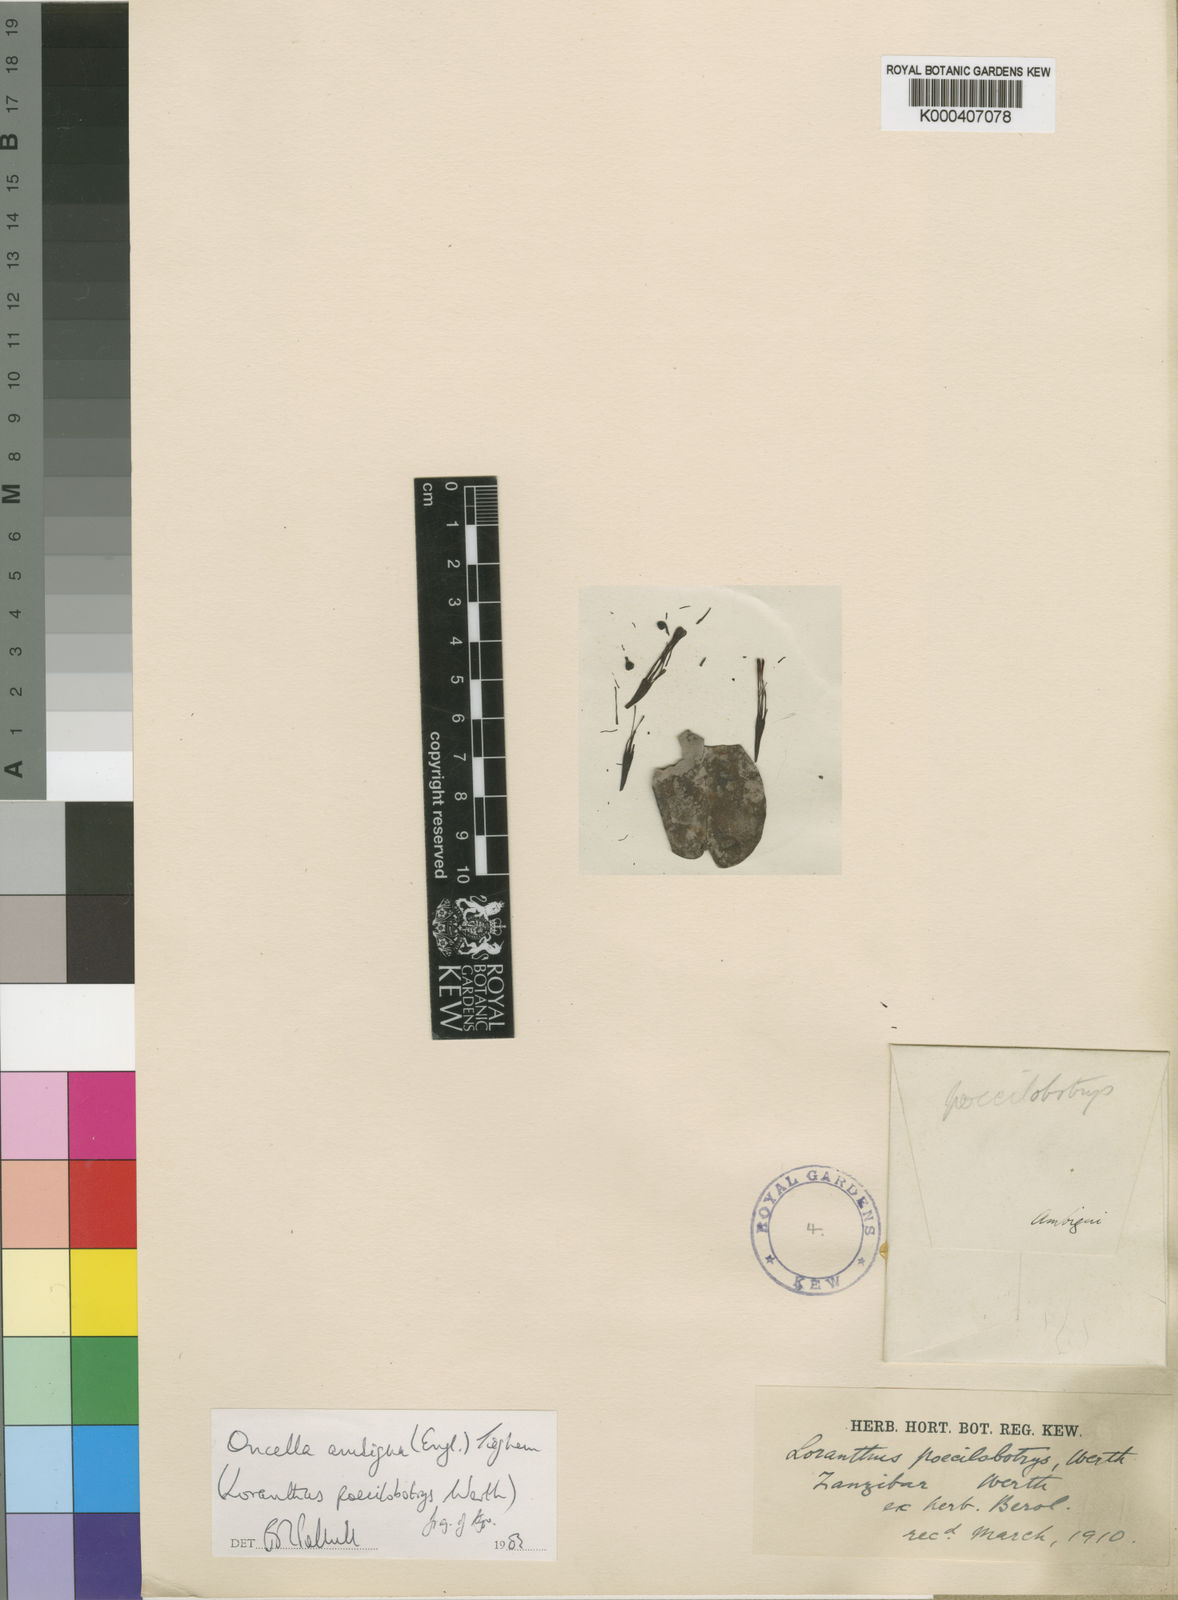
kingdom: Plantae
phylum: Tracheophyta
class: Magnoliopsida
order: Santalales
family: Loranthaceae
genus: Oncella
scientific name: Oncella ambigua
